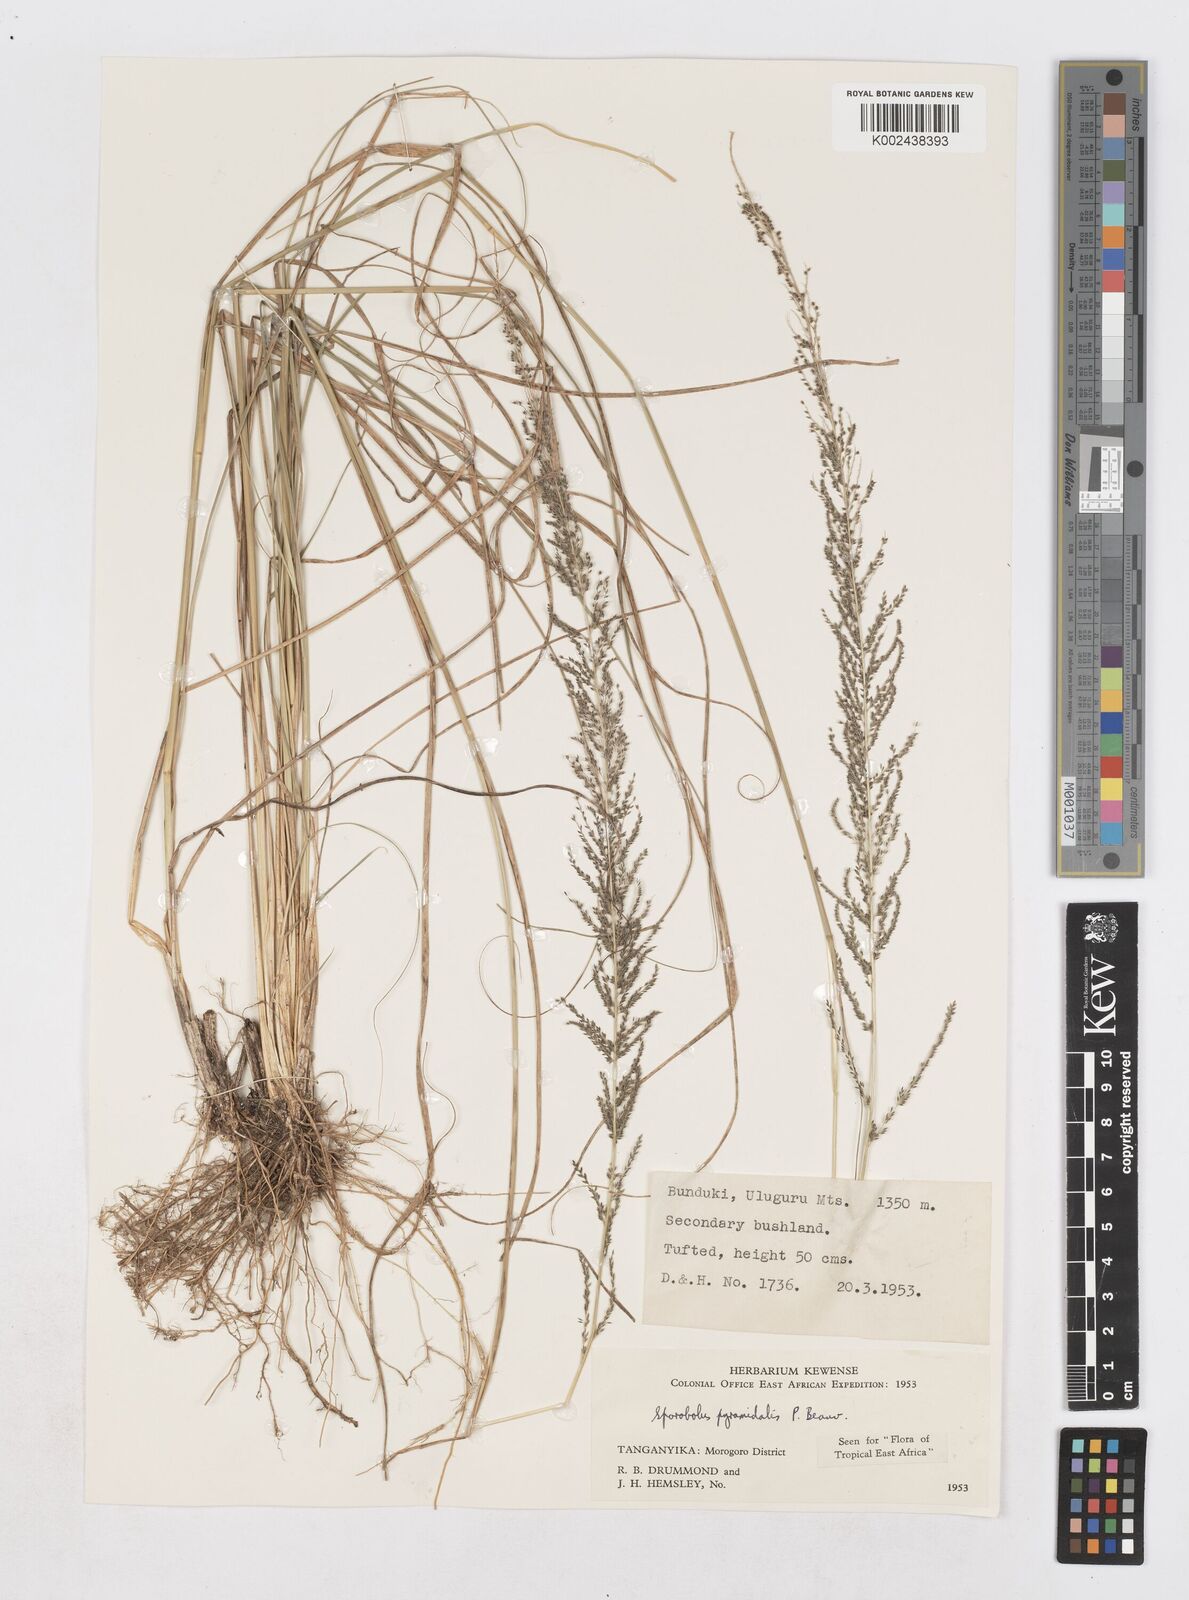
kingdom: Plantae
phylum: Tracheophyta
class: Liliopsida
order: Poales
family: Poaceae
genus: Sporobolus
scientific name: Sporobolus pyramidalis
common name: West indian dropseed
